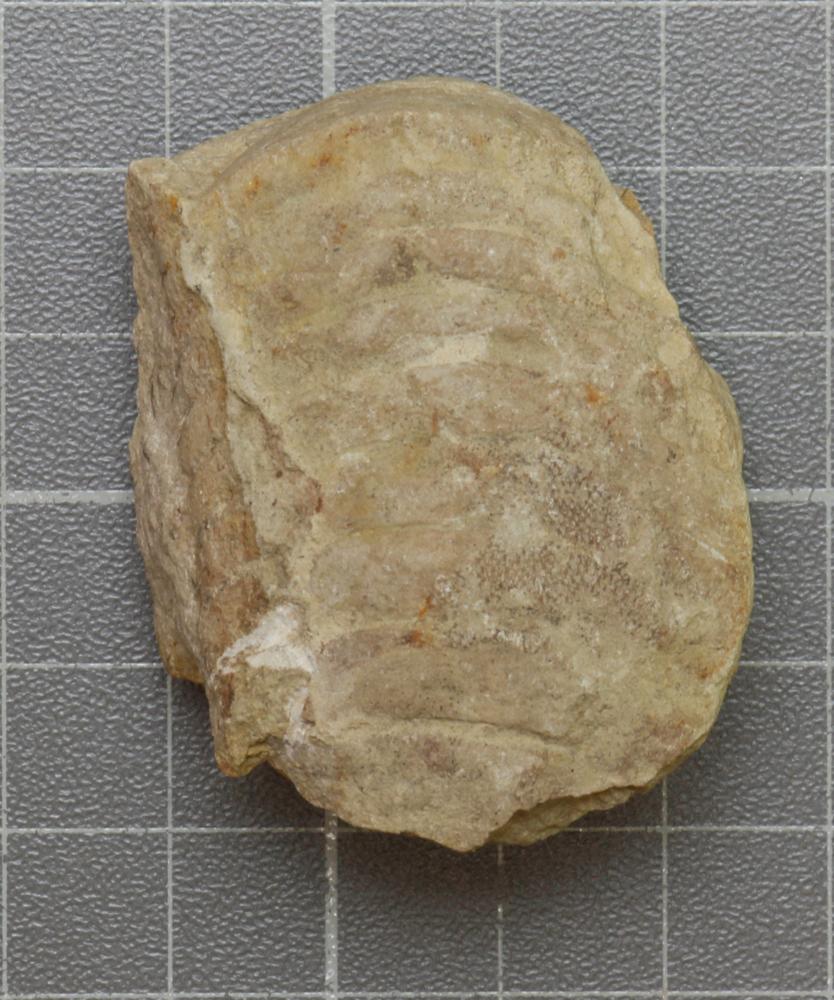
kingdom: Animalia
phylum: Mollusca
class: Cephalopoda
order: Nautilida
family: Nautilidae
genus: Richardsonoceras
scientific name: Richardsonoceras sinuososeptatum
